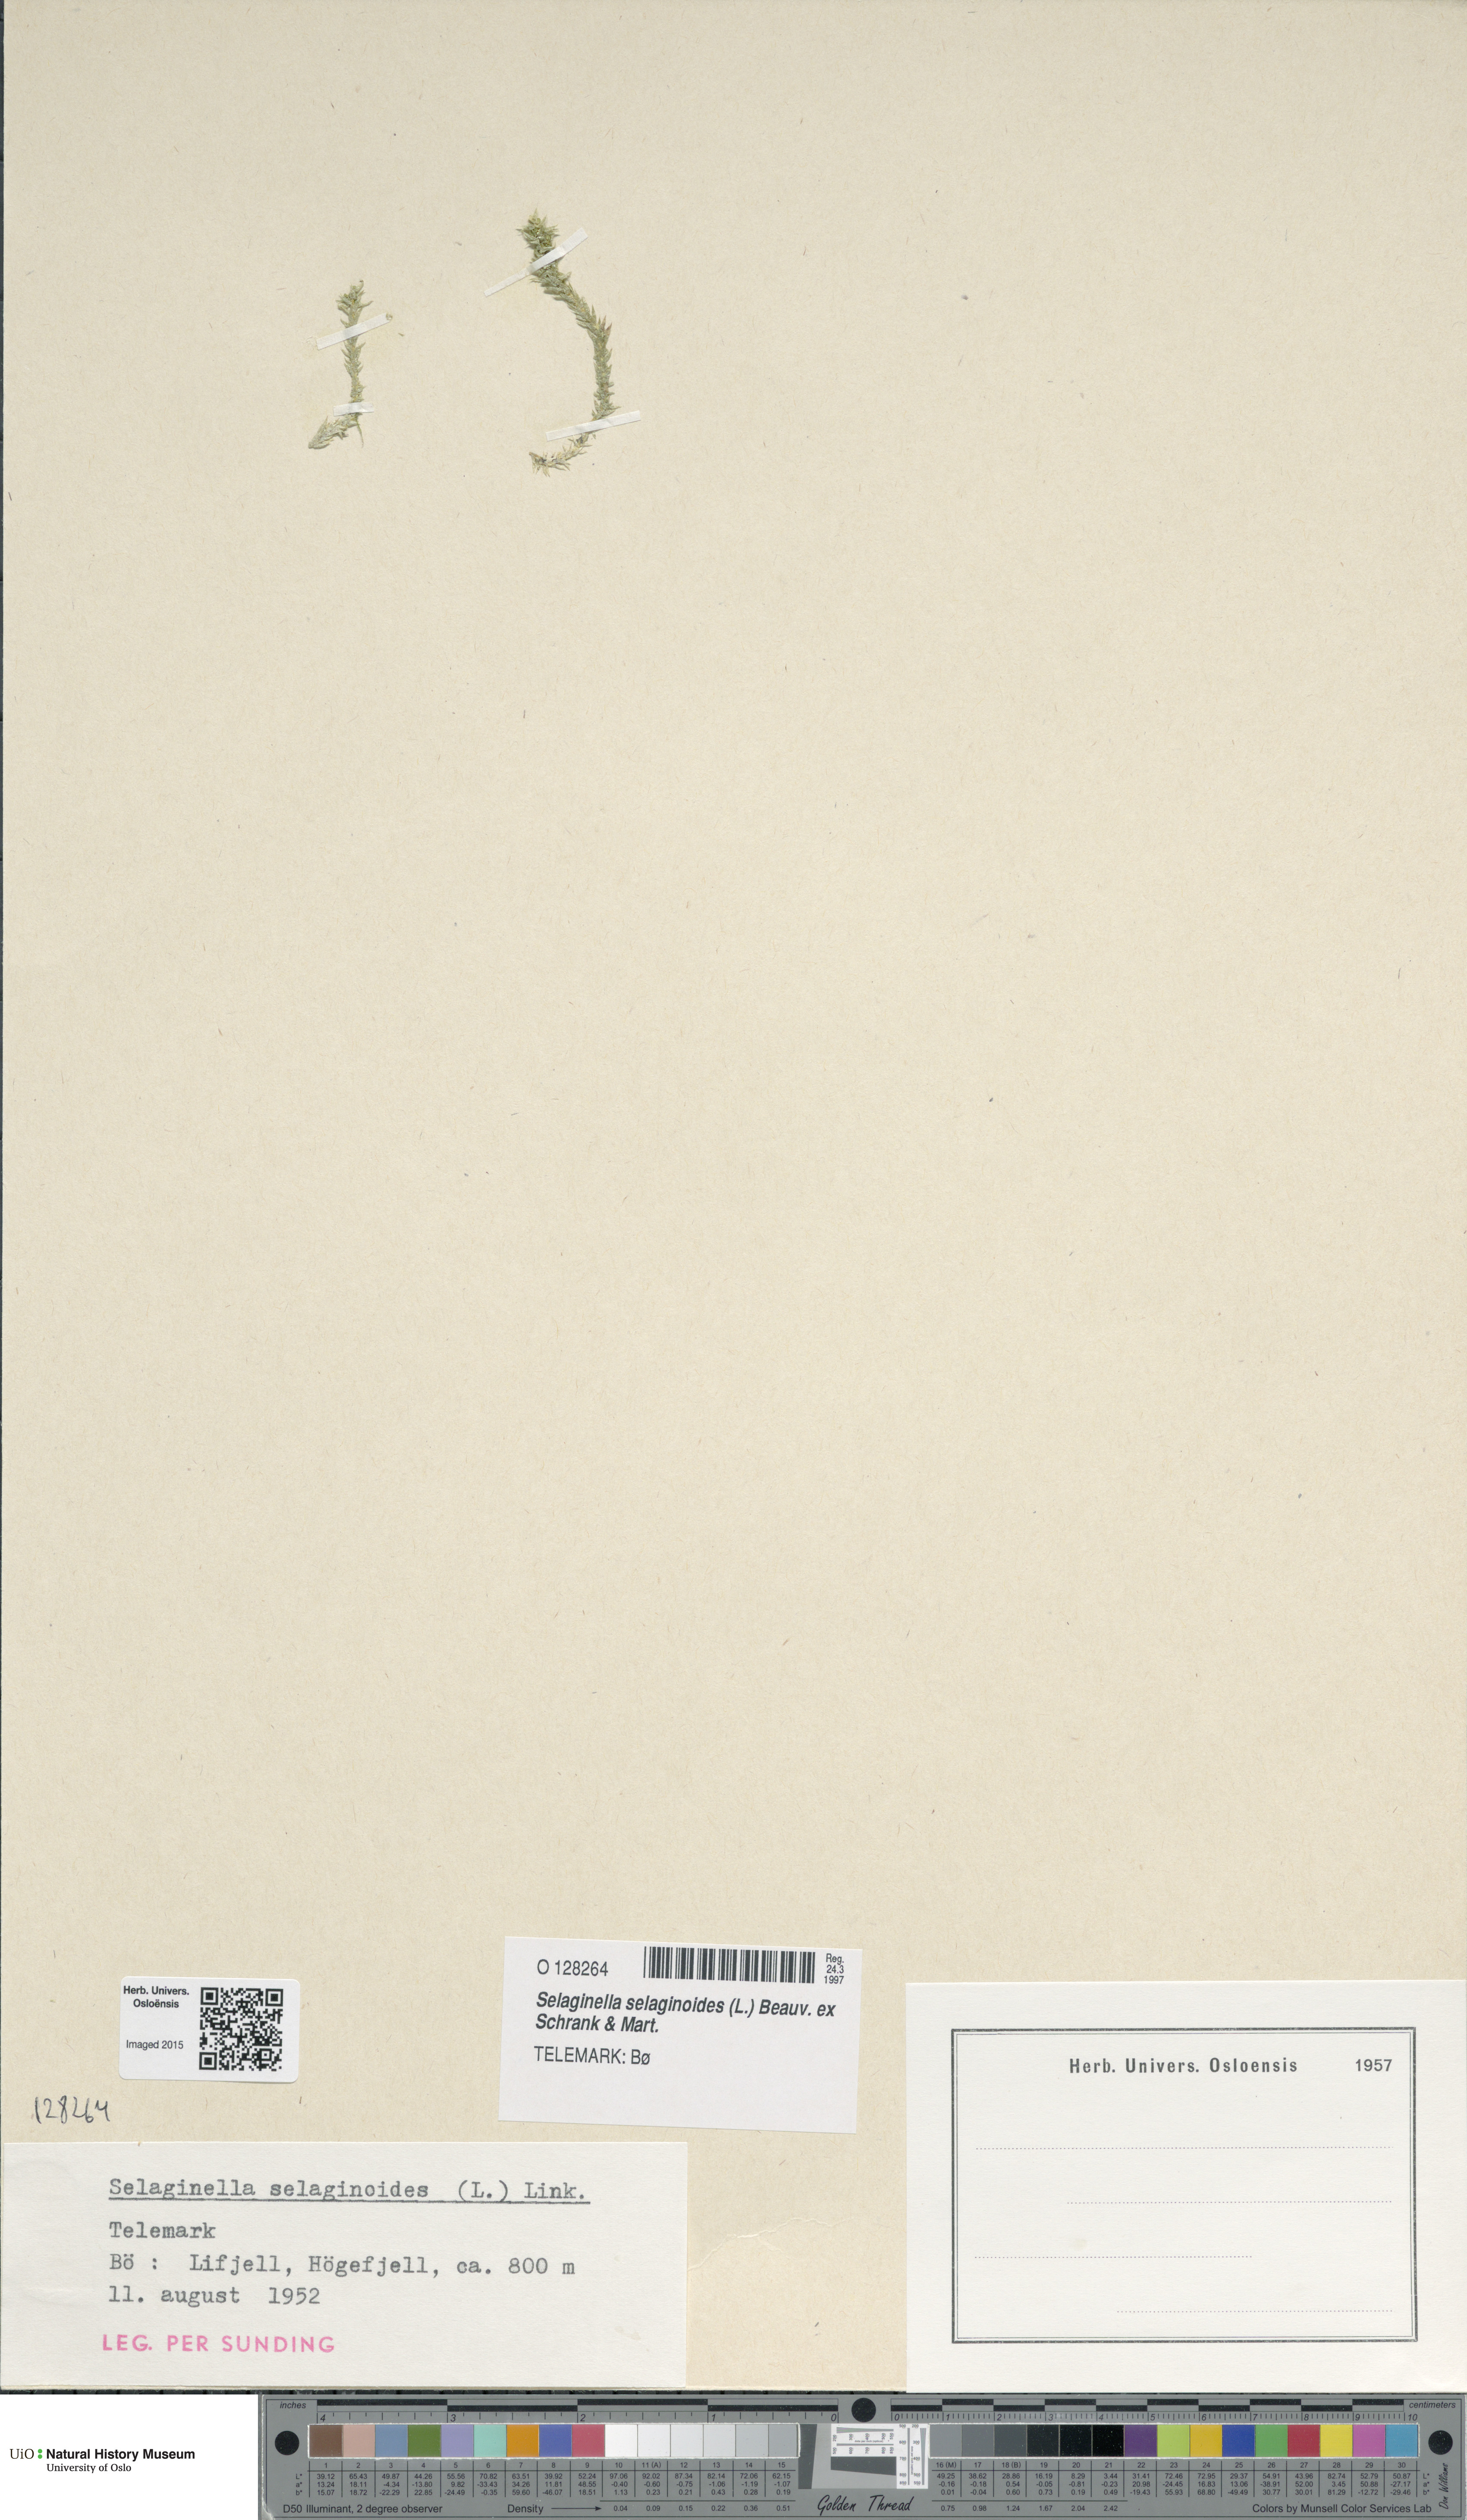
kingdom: Plantae
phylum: Tracheophyta
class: Lycopodiopsida
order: Selaginellales
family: Selaginellaceae
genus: Selaginella
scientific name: Selaginella selaginoides
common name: Prickly mountain-moss
